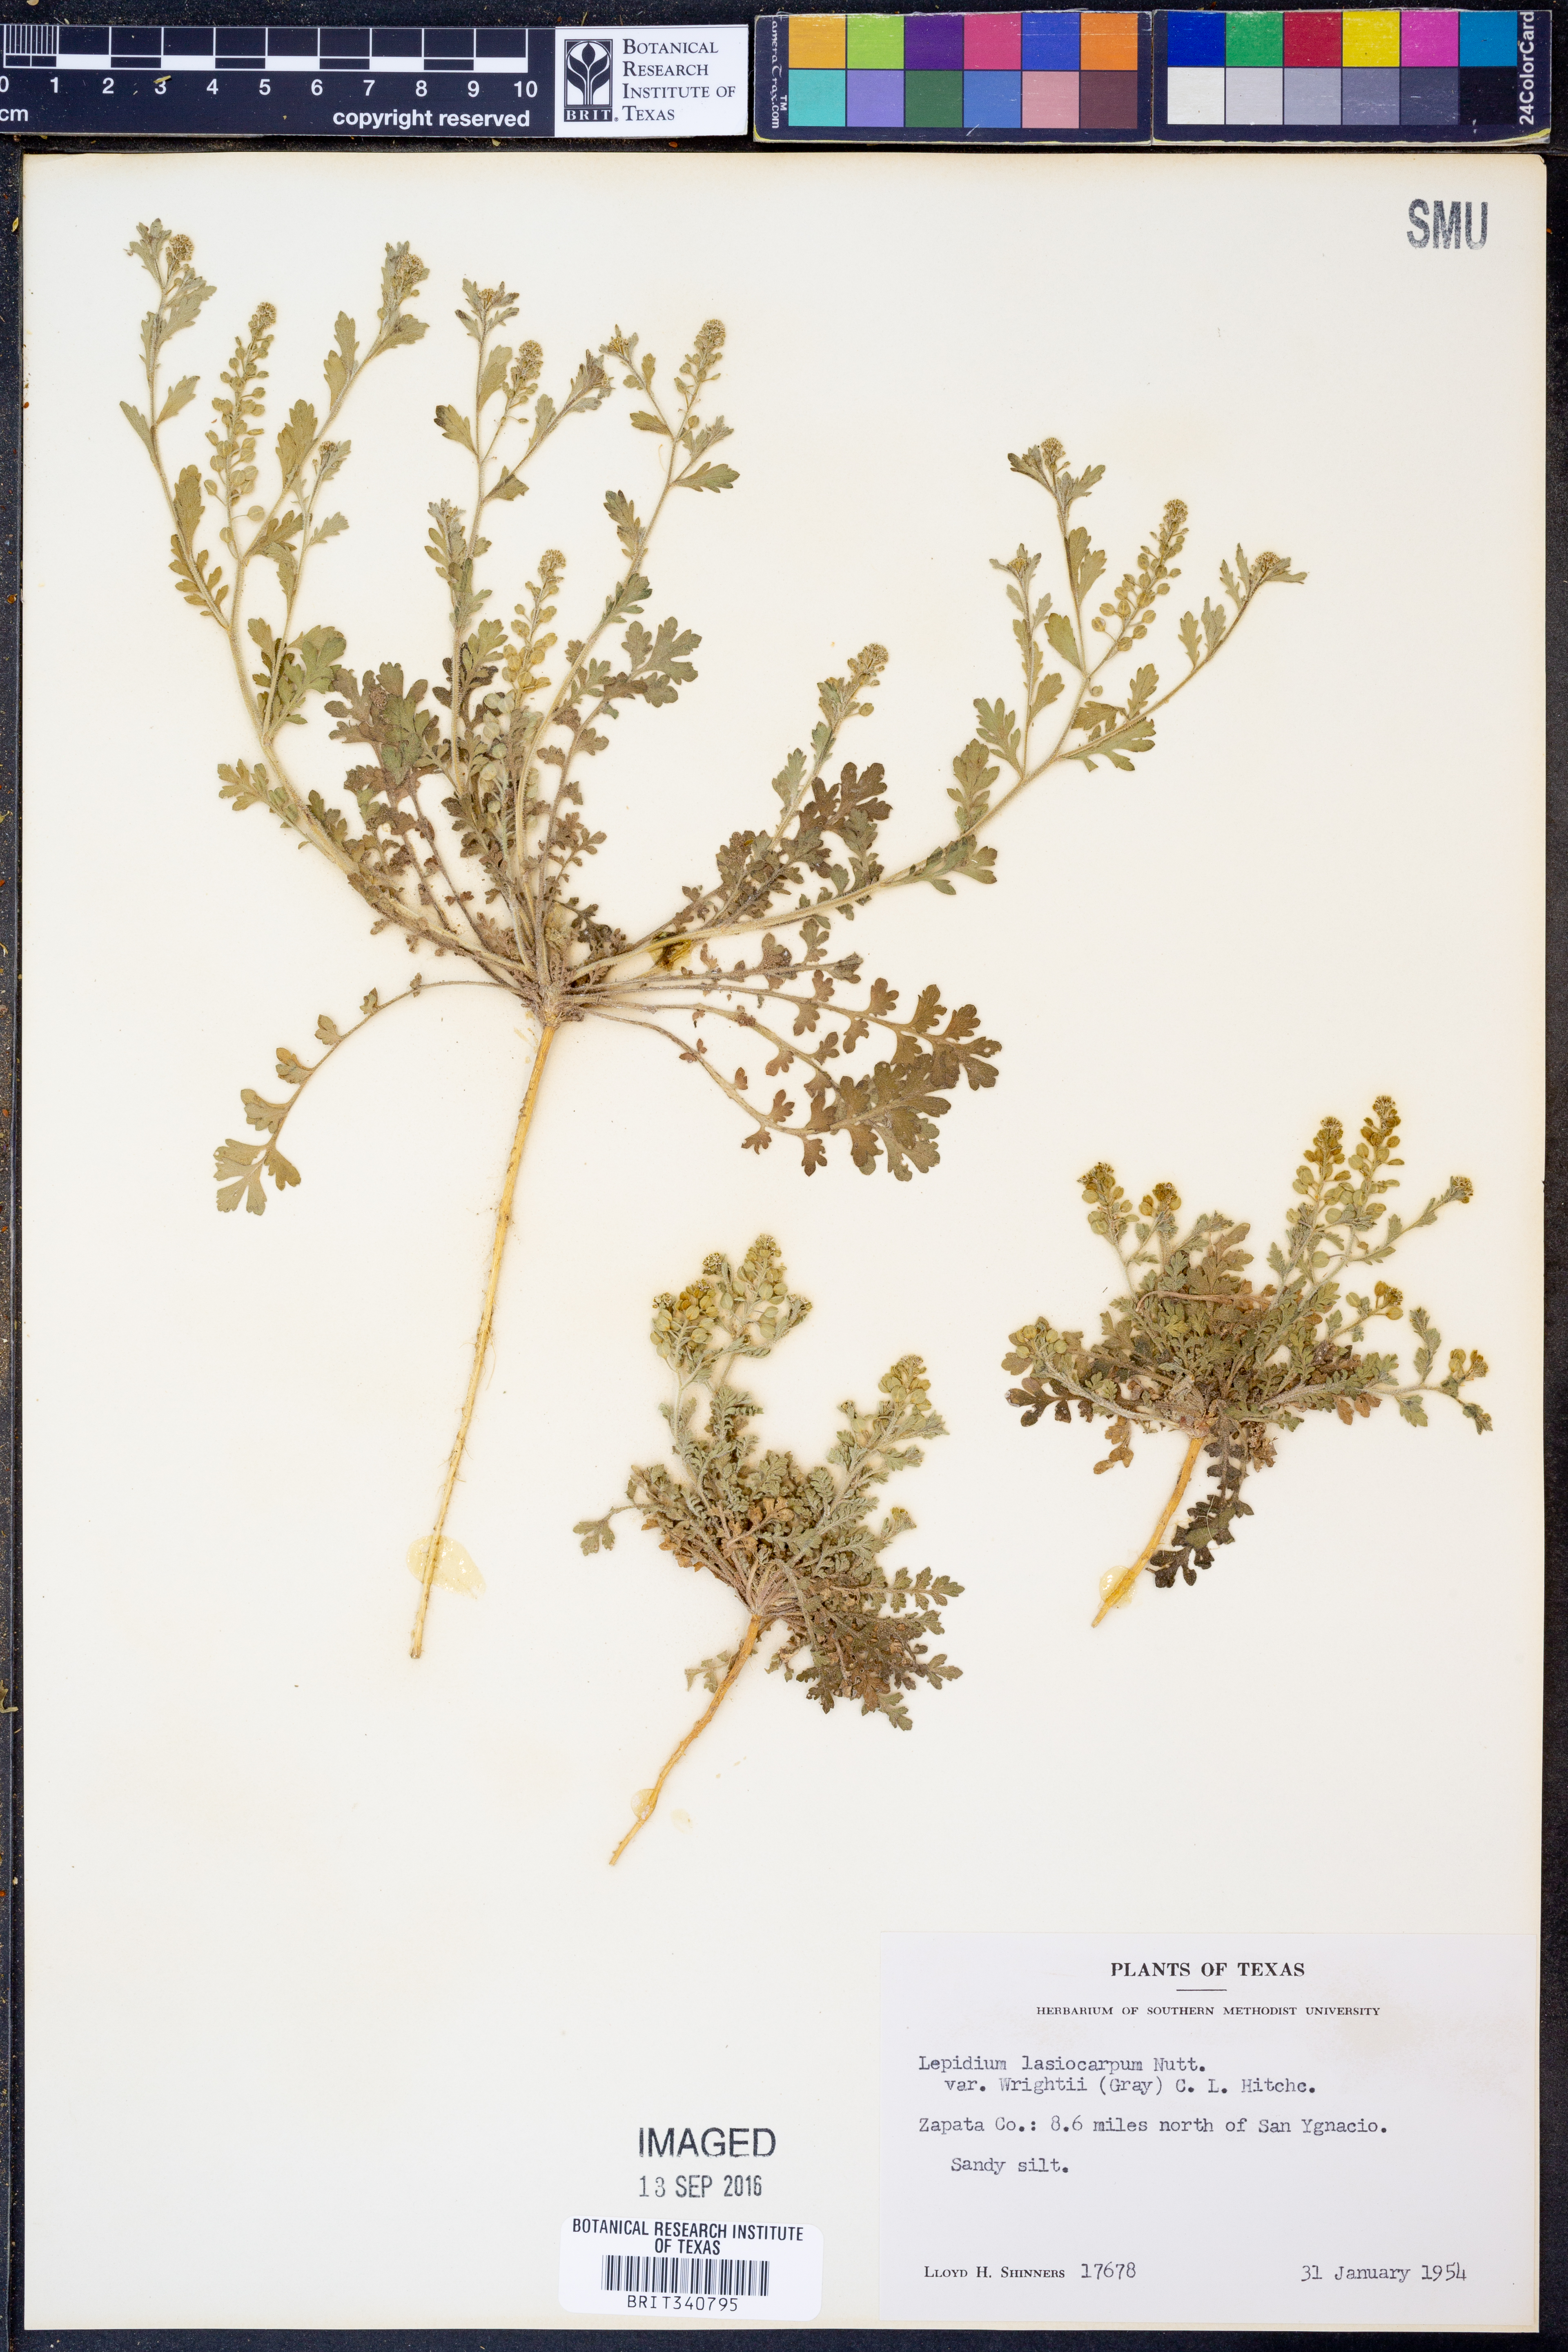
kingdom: Plantae
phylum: Tracheophyta
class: Magnoliopsida
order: Brassicales
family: Brassicaceae
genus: Lepidium
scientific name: Lepidium lasiocarpum
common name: Hairy-pod pepperwort
